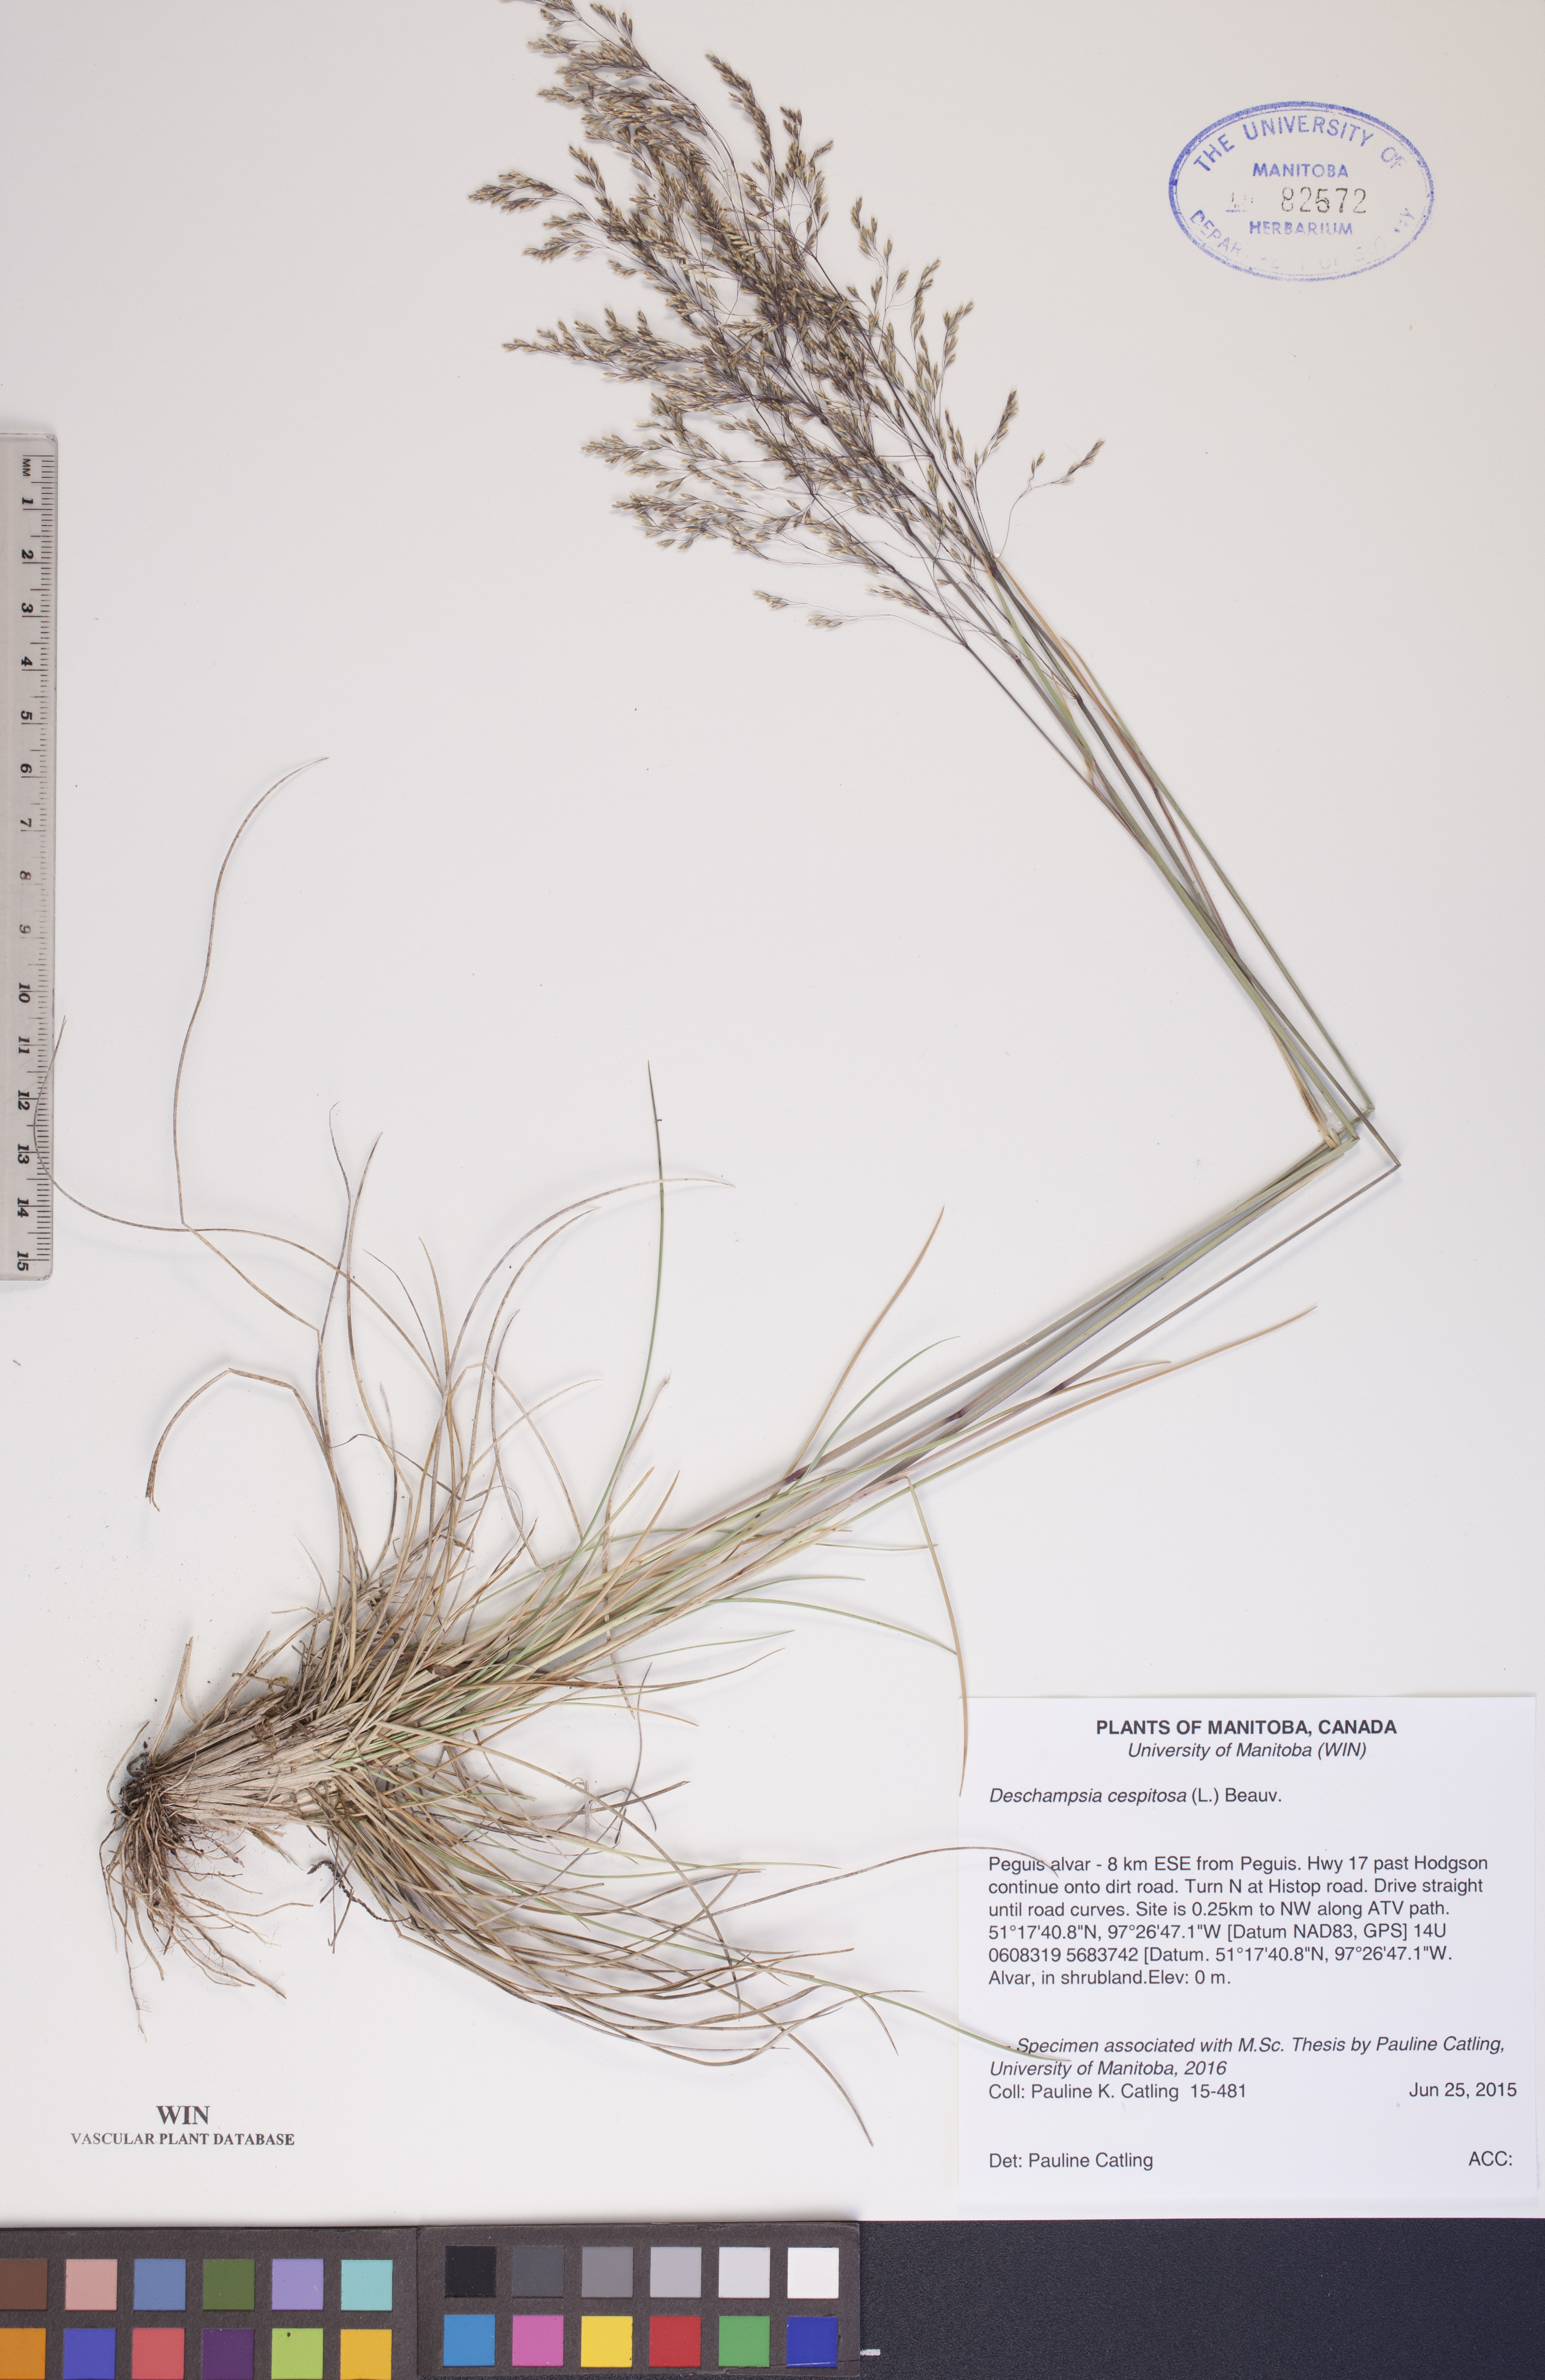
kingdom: Plantae
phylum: Tracheophyta
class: Liliopsida
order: Poales
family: Poaceae
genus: Deschampsia
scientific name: Deschampsia cespitosa
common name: Tufted hair-grass
